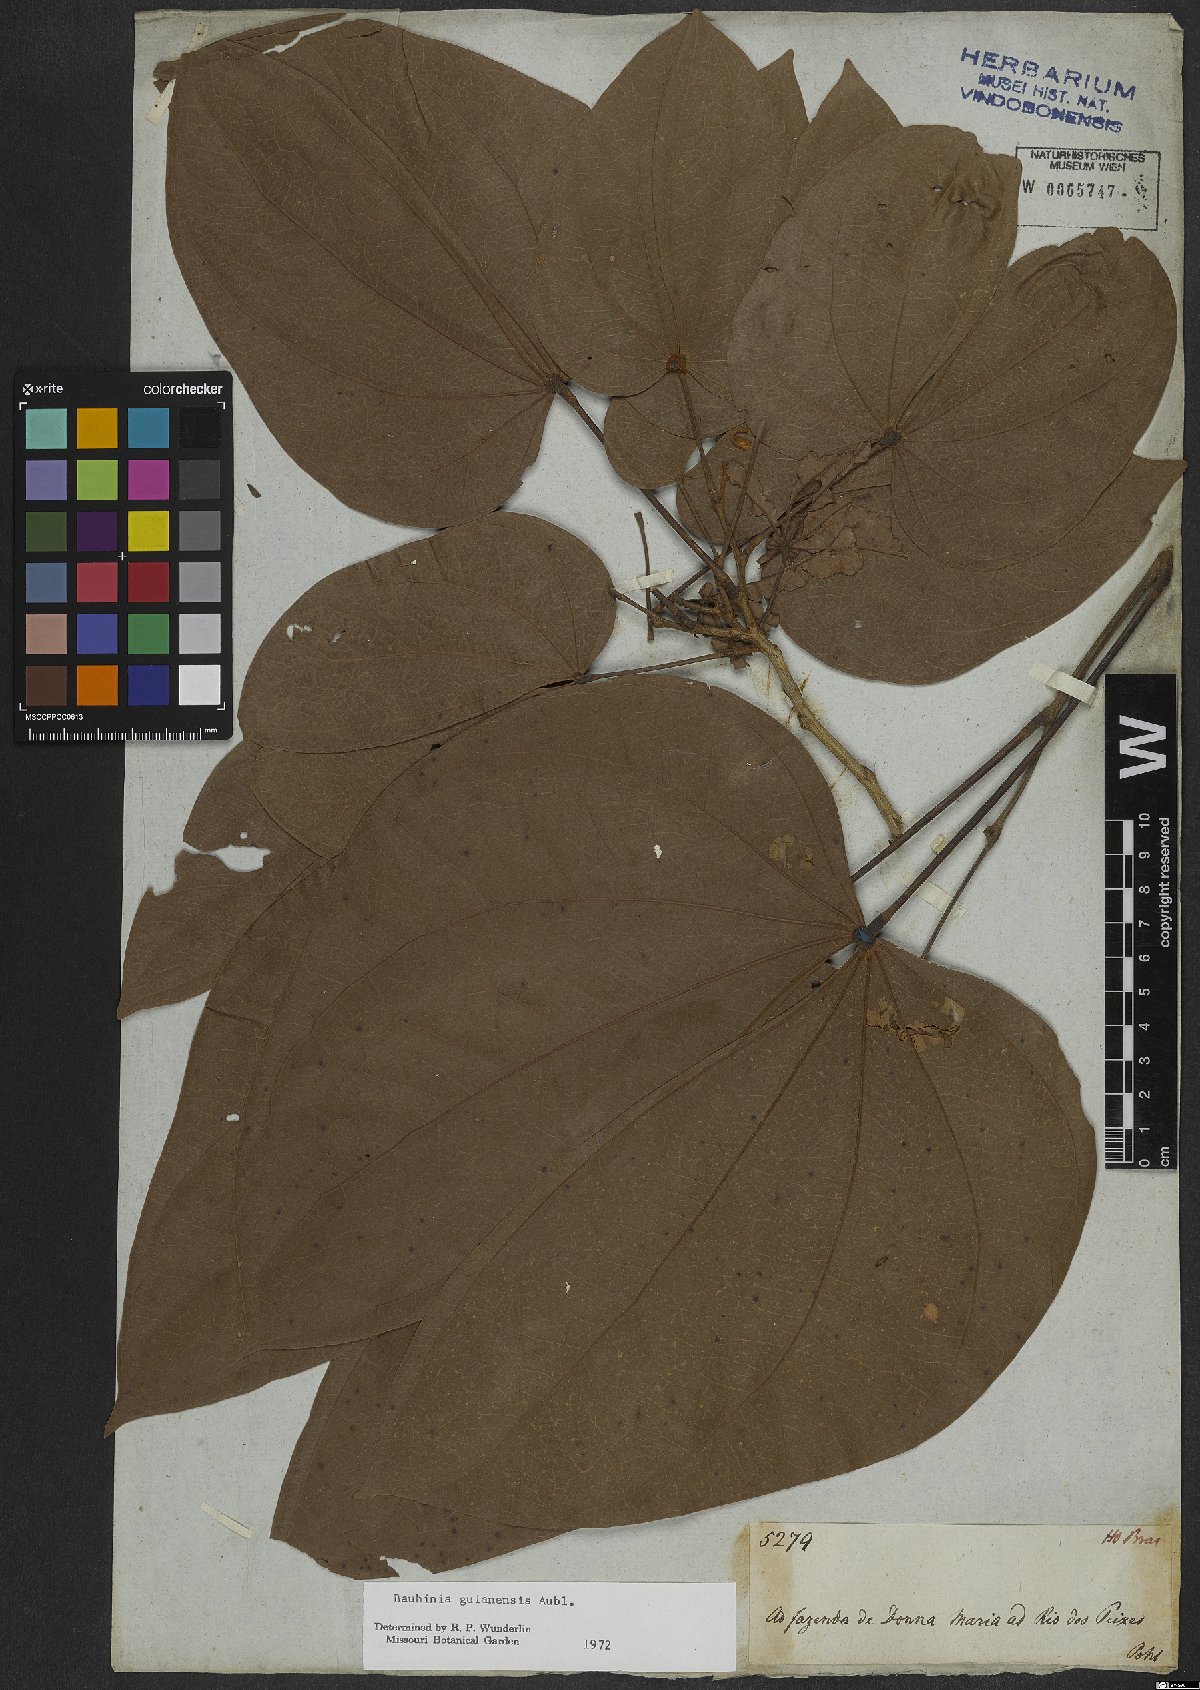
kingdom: Plantae
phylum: Tracheophyta
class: Magnoliopsida
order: Fabales
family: Fabaceae
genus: Schnella
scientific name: Schnella guianensis
